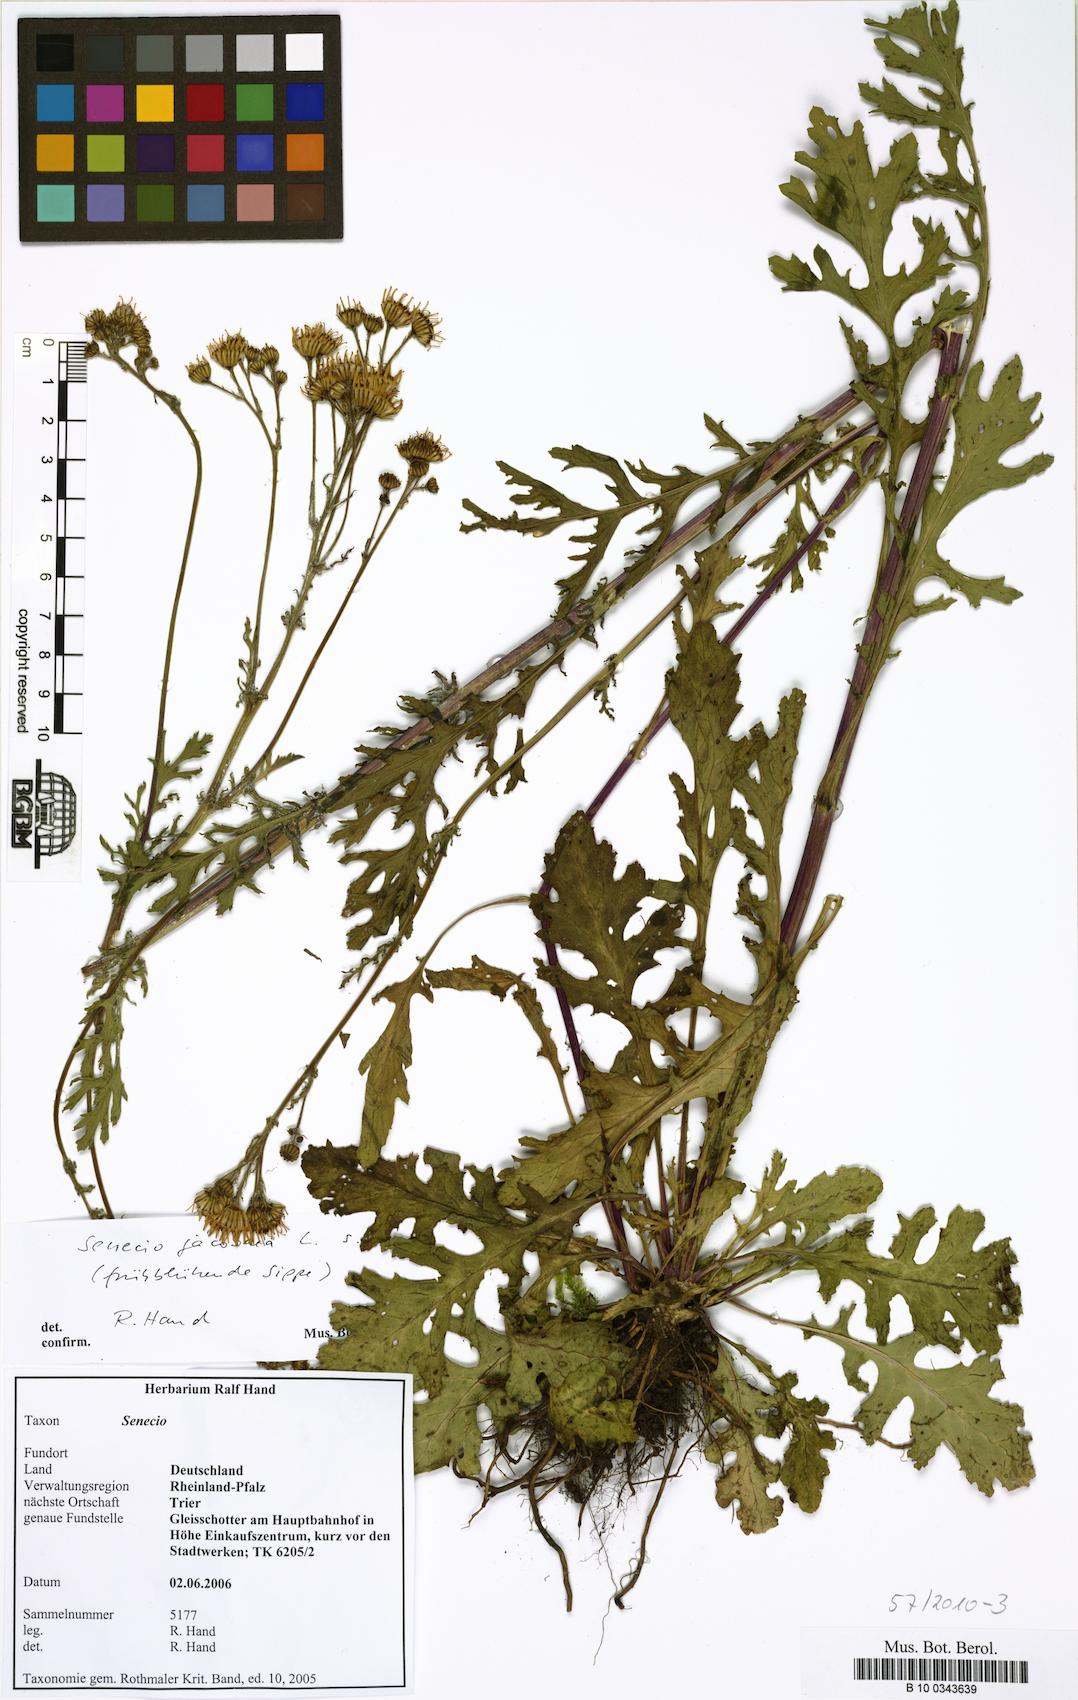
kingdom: Plantae
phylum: Tracheophyta
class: Magnoliopsida
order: Asterales
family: Asteraceae
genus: Jacobaea
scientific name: Jacobaea vulgaris
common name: Stinking willie
